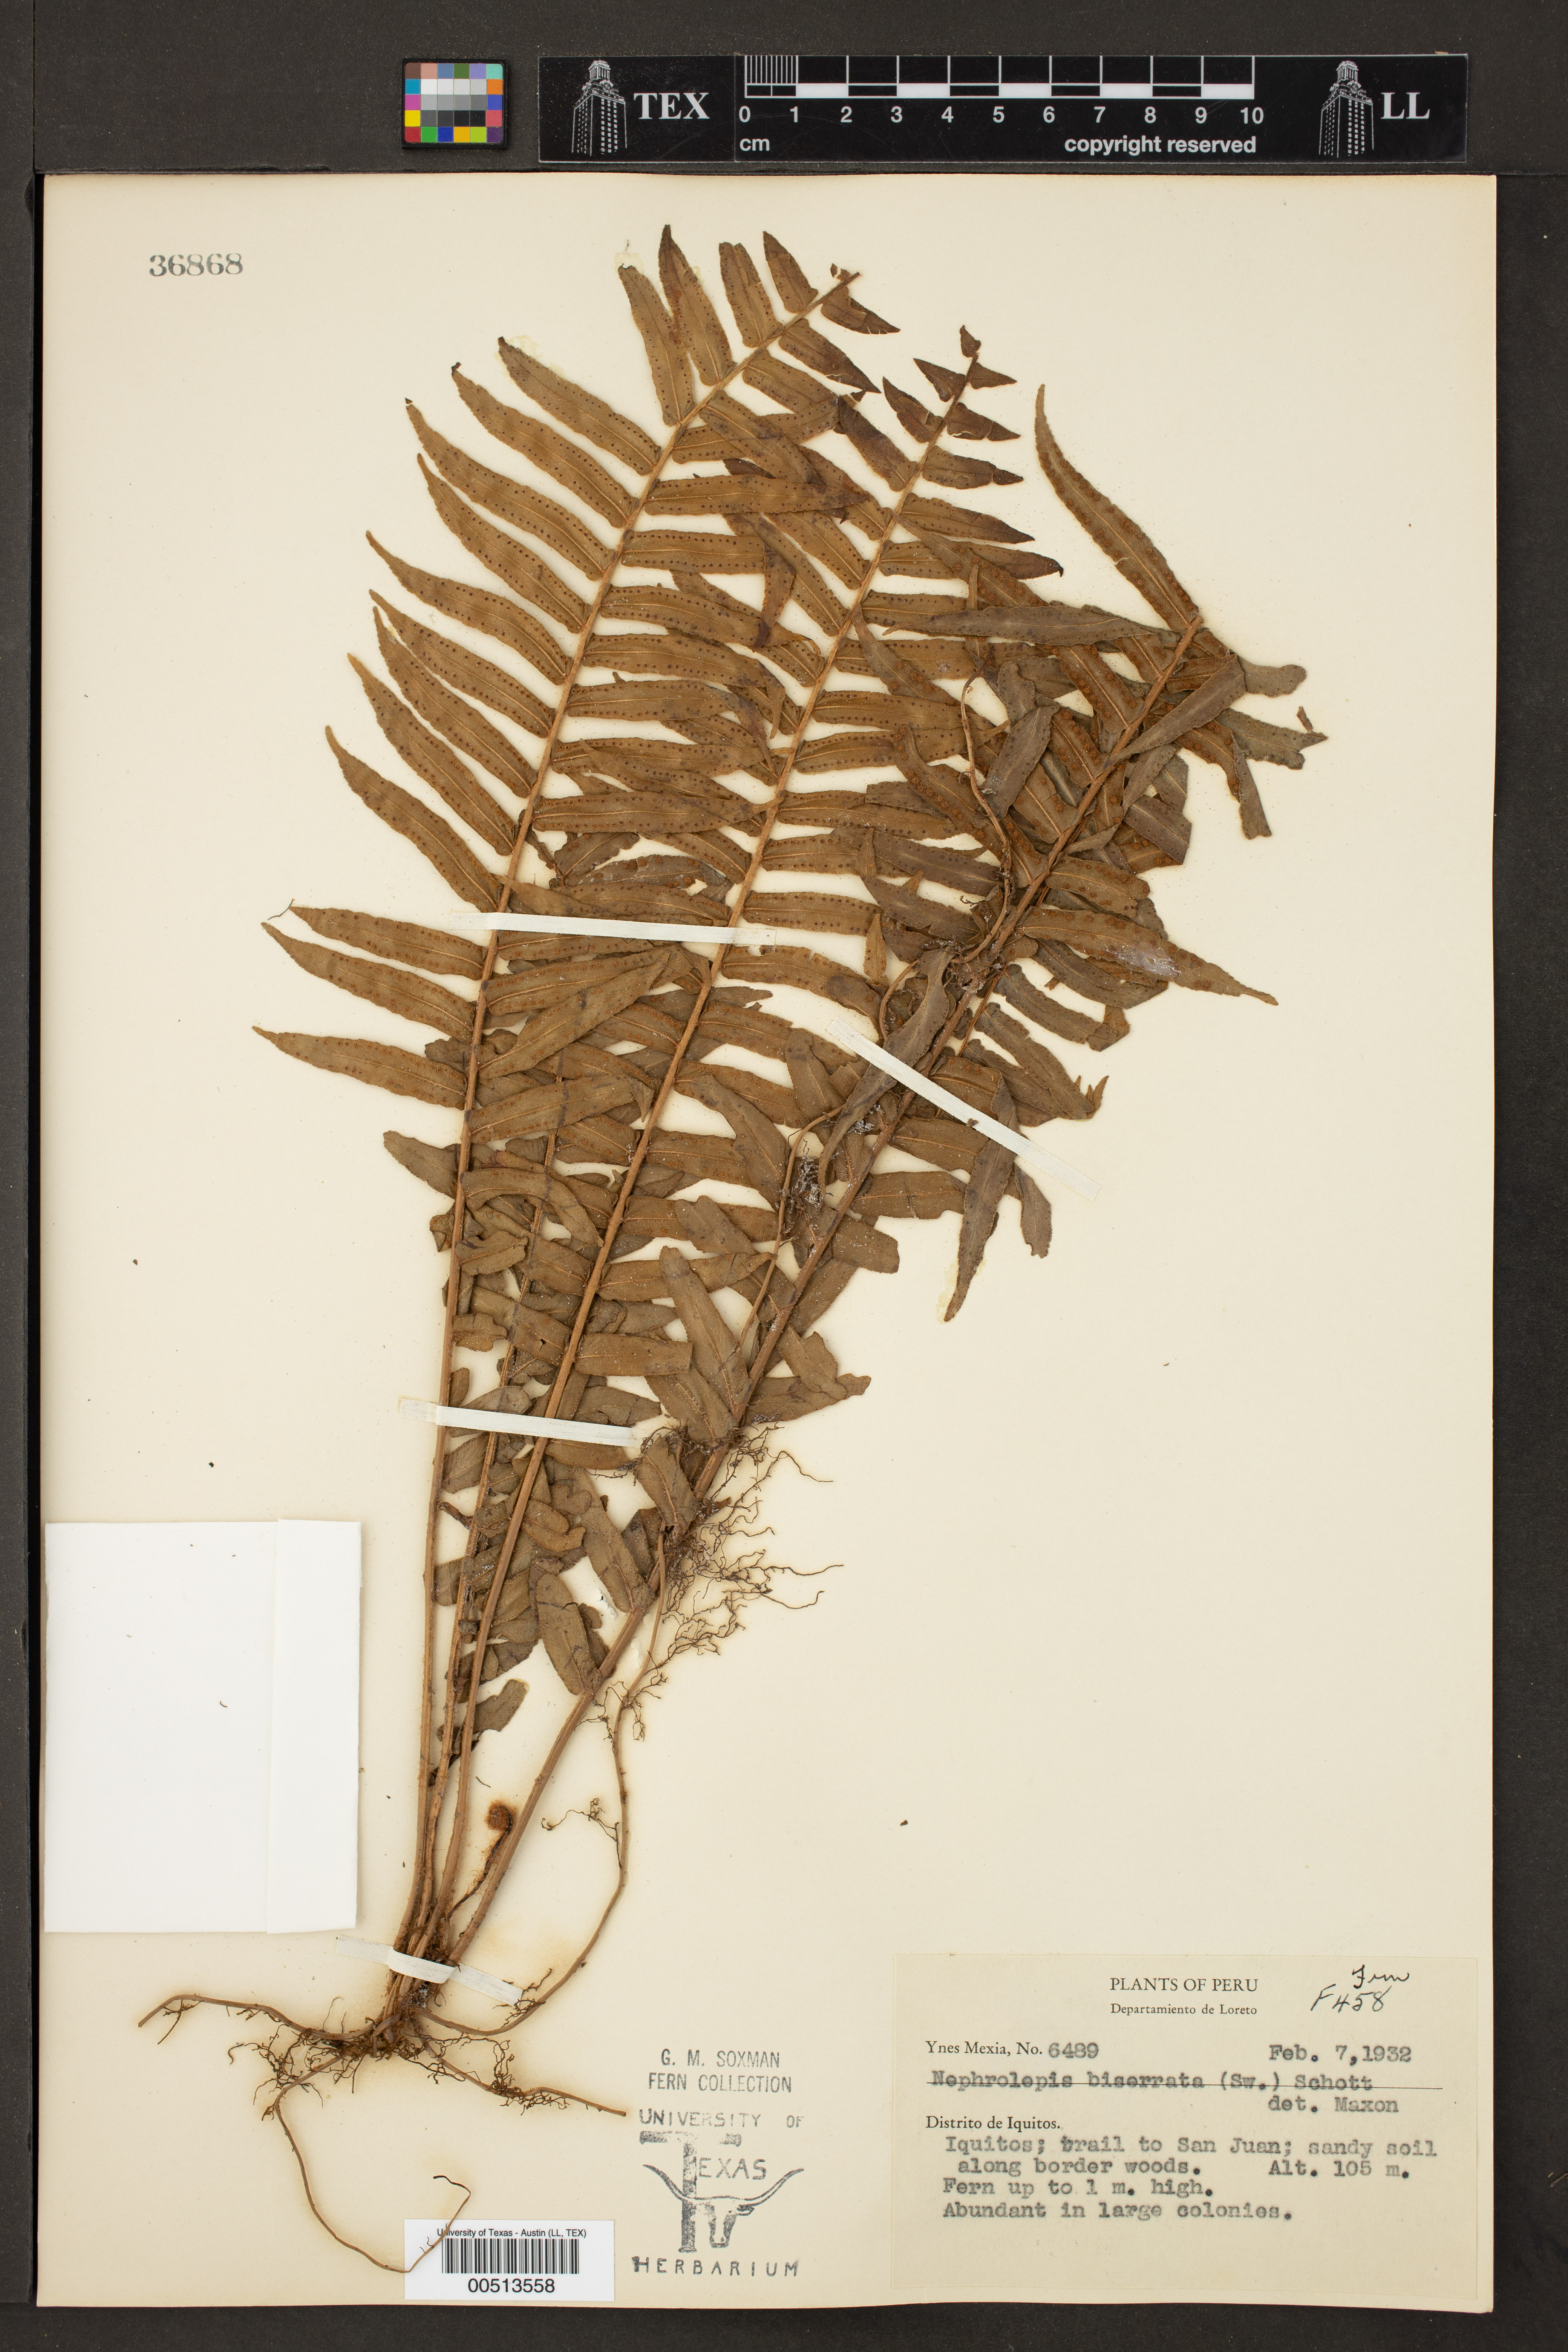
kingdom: Plantae
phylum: Tracheophyta
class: Polypodiopsida
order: Polypodiales
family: Nephrolepidaceae
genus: Nephrolepis
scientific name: Nephrolepis biserrata
